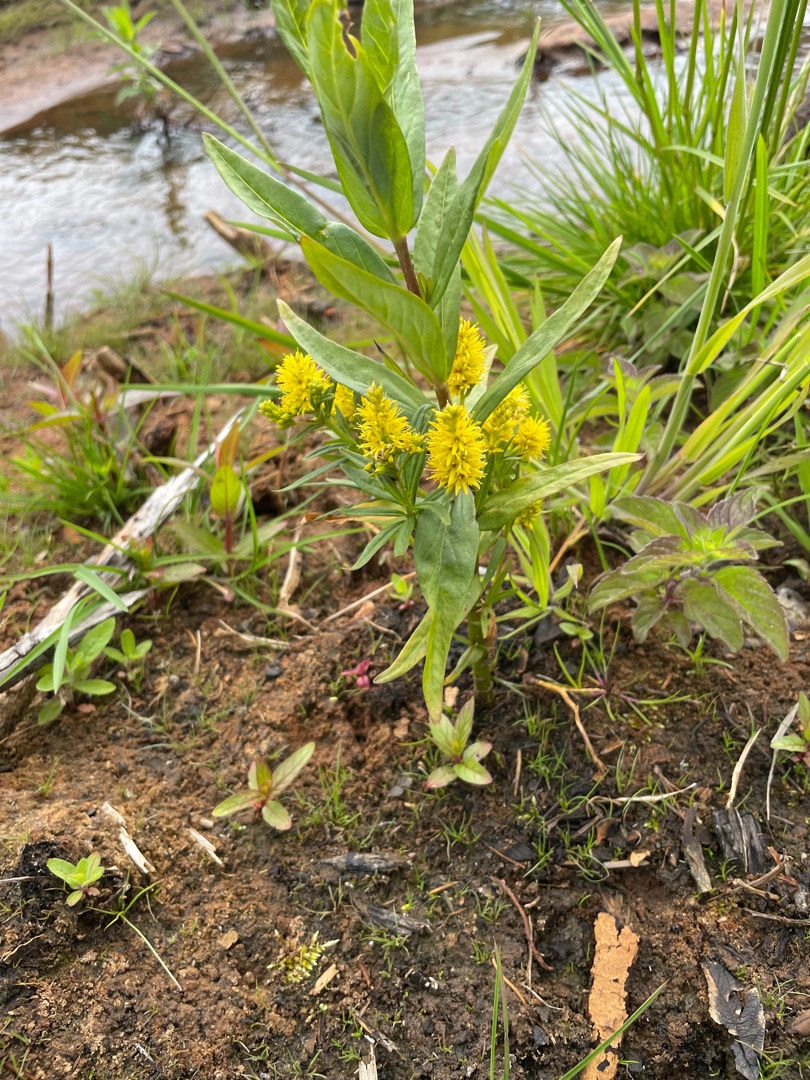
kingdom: Plantae
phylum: Tracheophyta
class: Magnoliopsida
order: Ericales
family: Primulaceae
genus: Lysimachia
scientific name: Lysimachia thyrsiflora
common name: Dusk-fredløs
